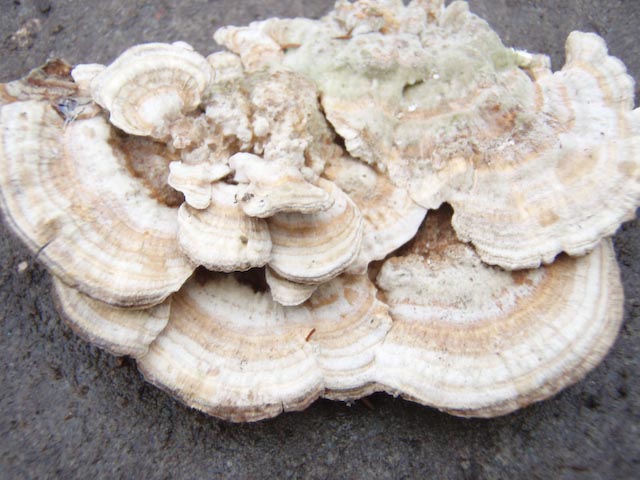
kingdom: Fungi
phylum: Basidiomycota
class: Agaricomycetes
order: Polyporales
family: Polyporaceae
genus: Trametes
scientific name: Trametes ochracea
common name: bæltet læderporesvamp
